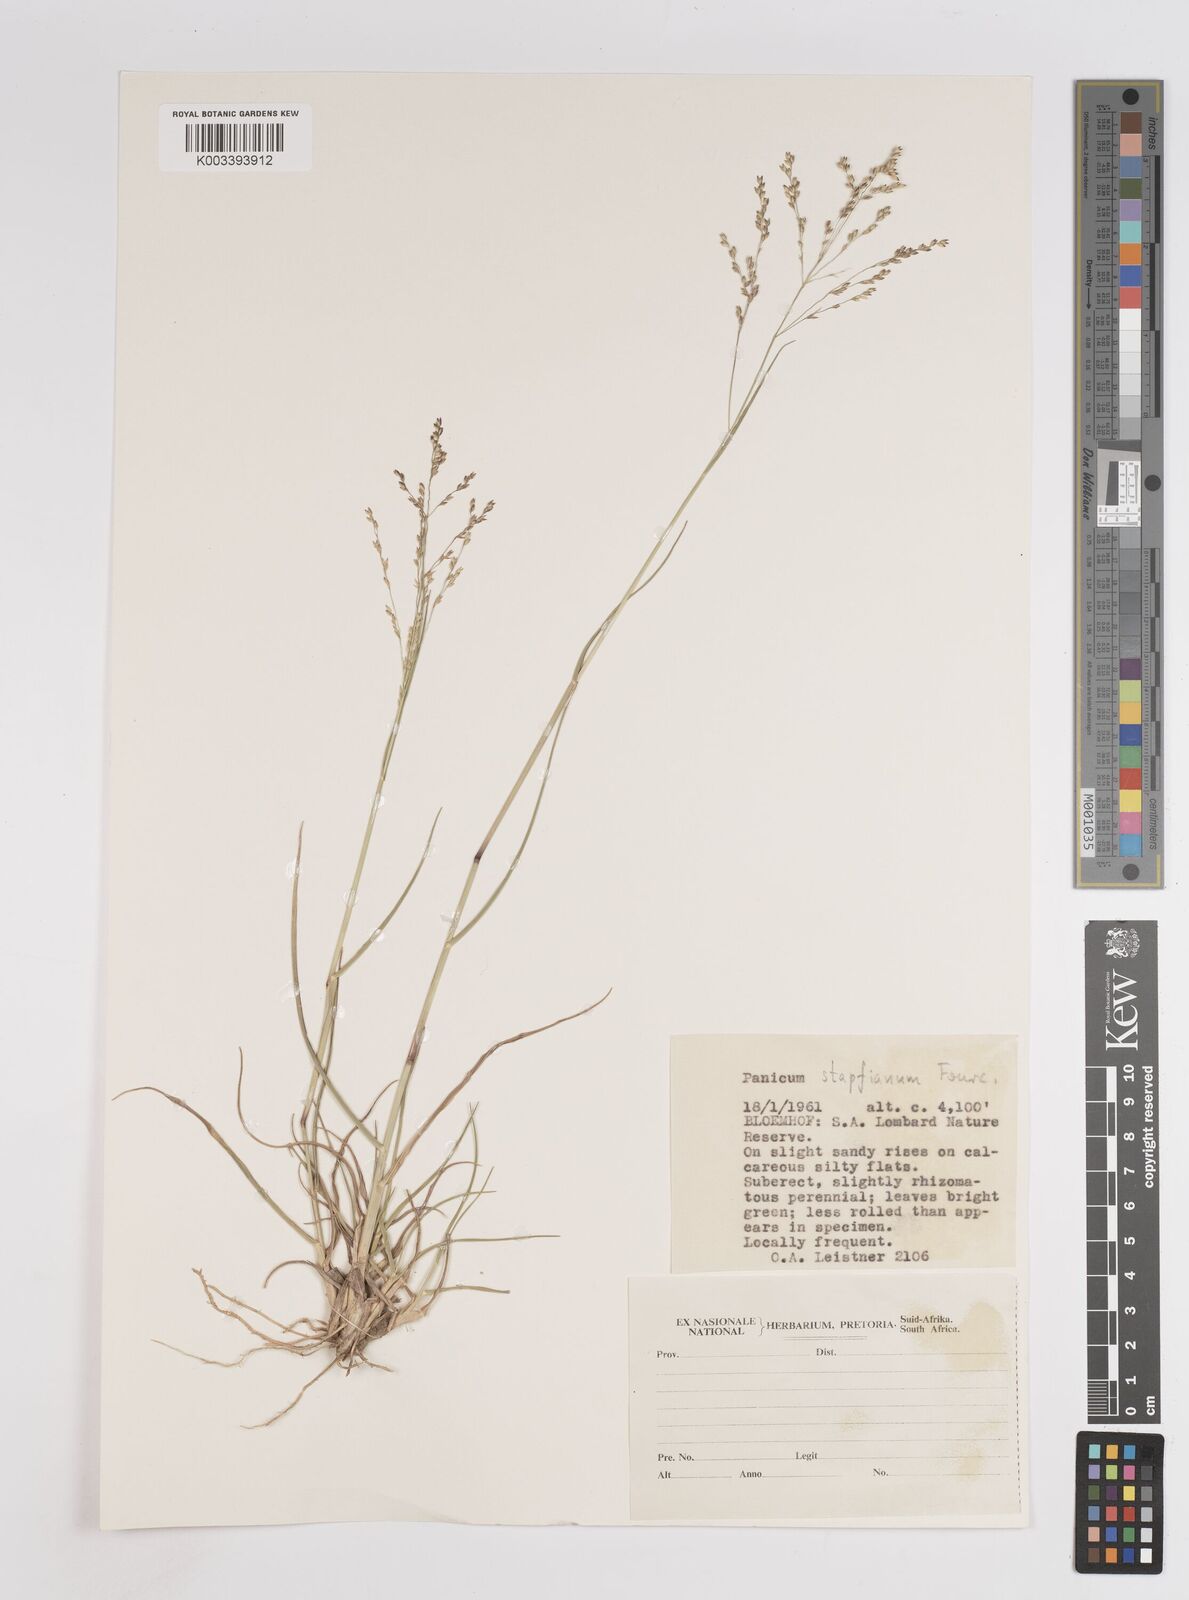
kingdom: Plantae
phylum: Tracheophyta
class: Liliopsida
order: Poales
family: Poaceae
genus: Panicum
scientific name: Panicum stapfianum
